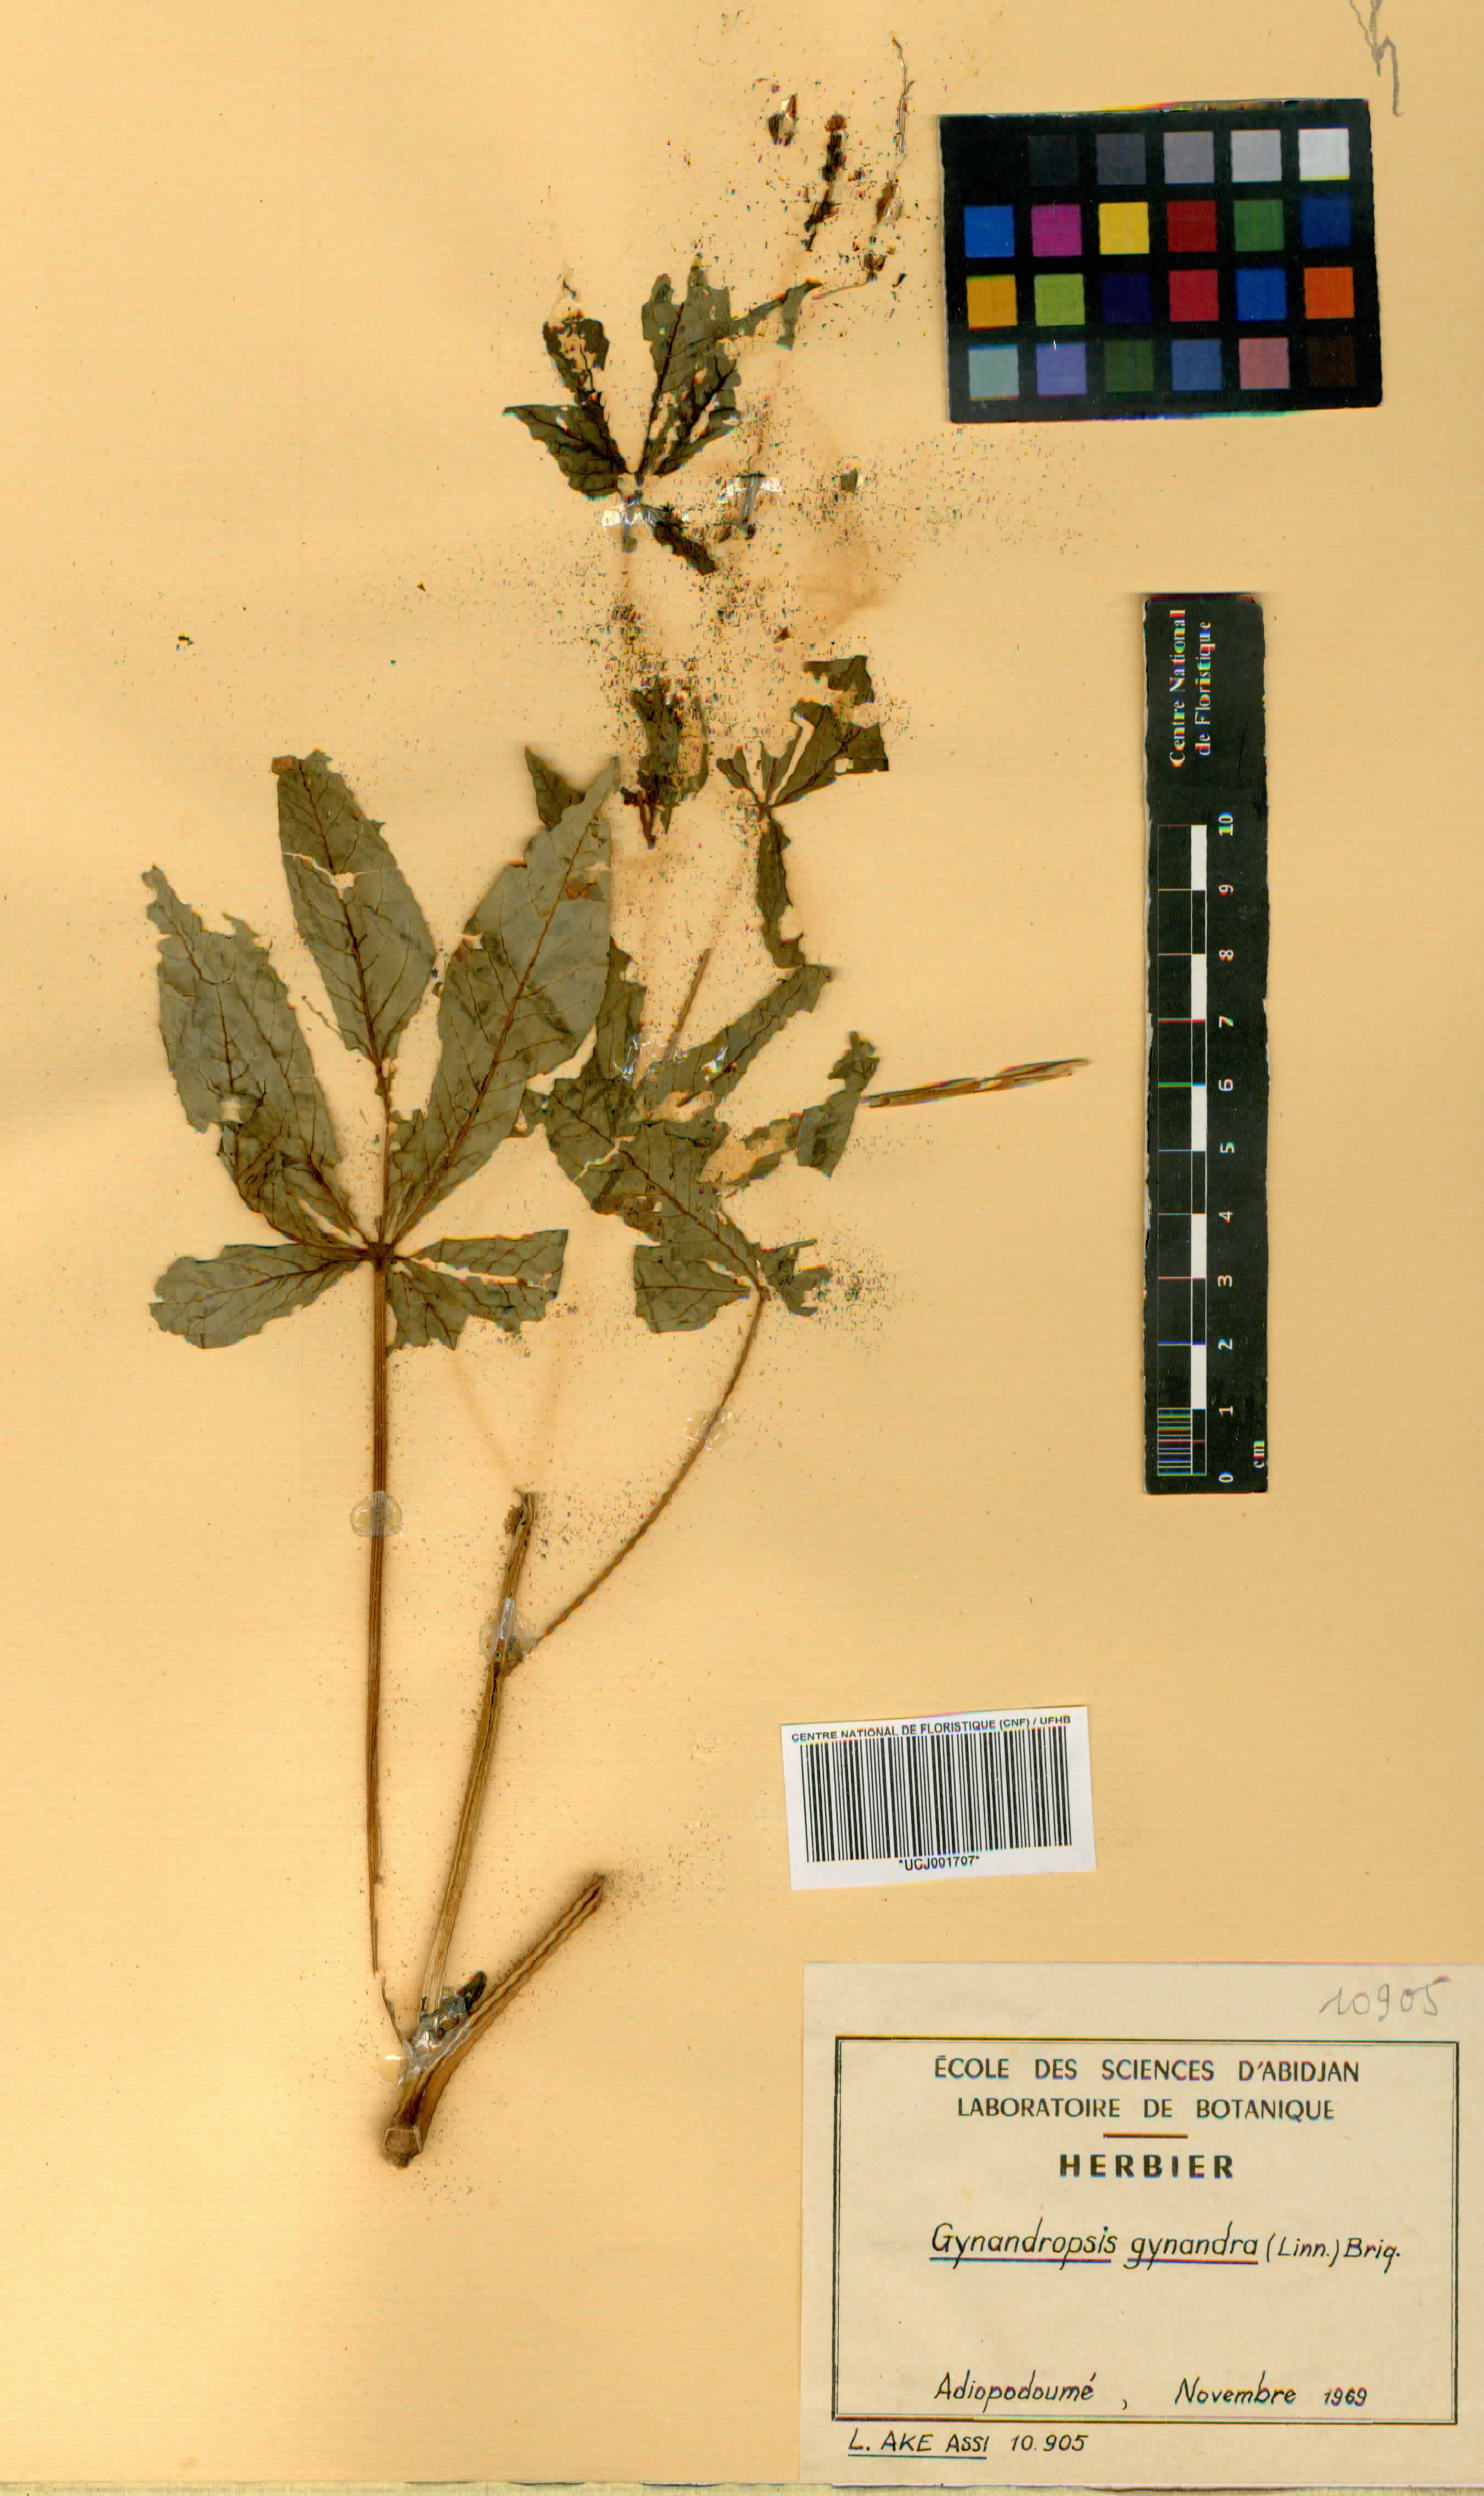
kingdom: Plantae
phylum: Tracheophyta
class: Magnoliopsida
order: Brassicales
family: Cleomaceae
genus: Gynandropsis
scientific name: Gynandropsis gynandra
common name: Spiderwisp
